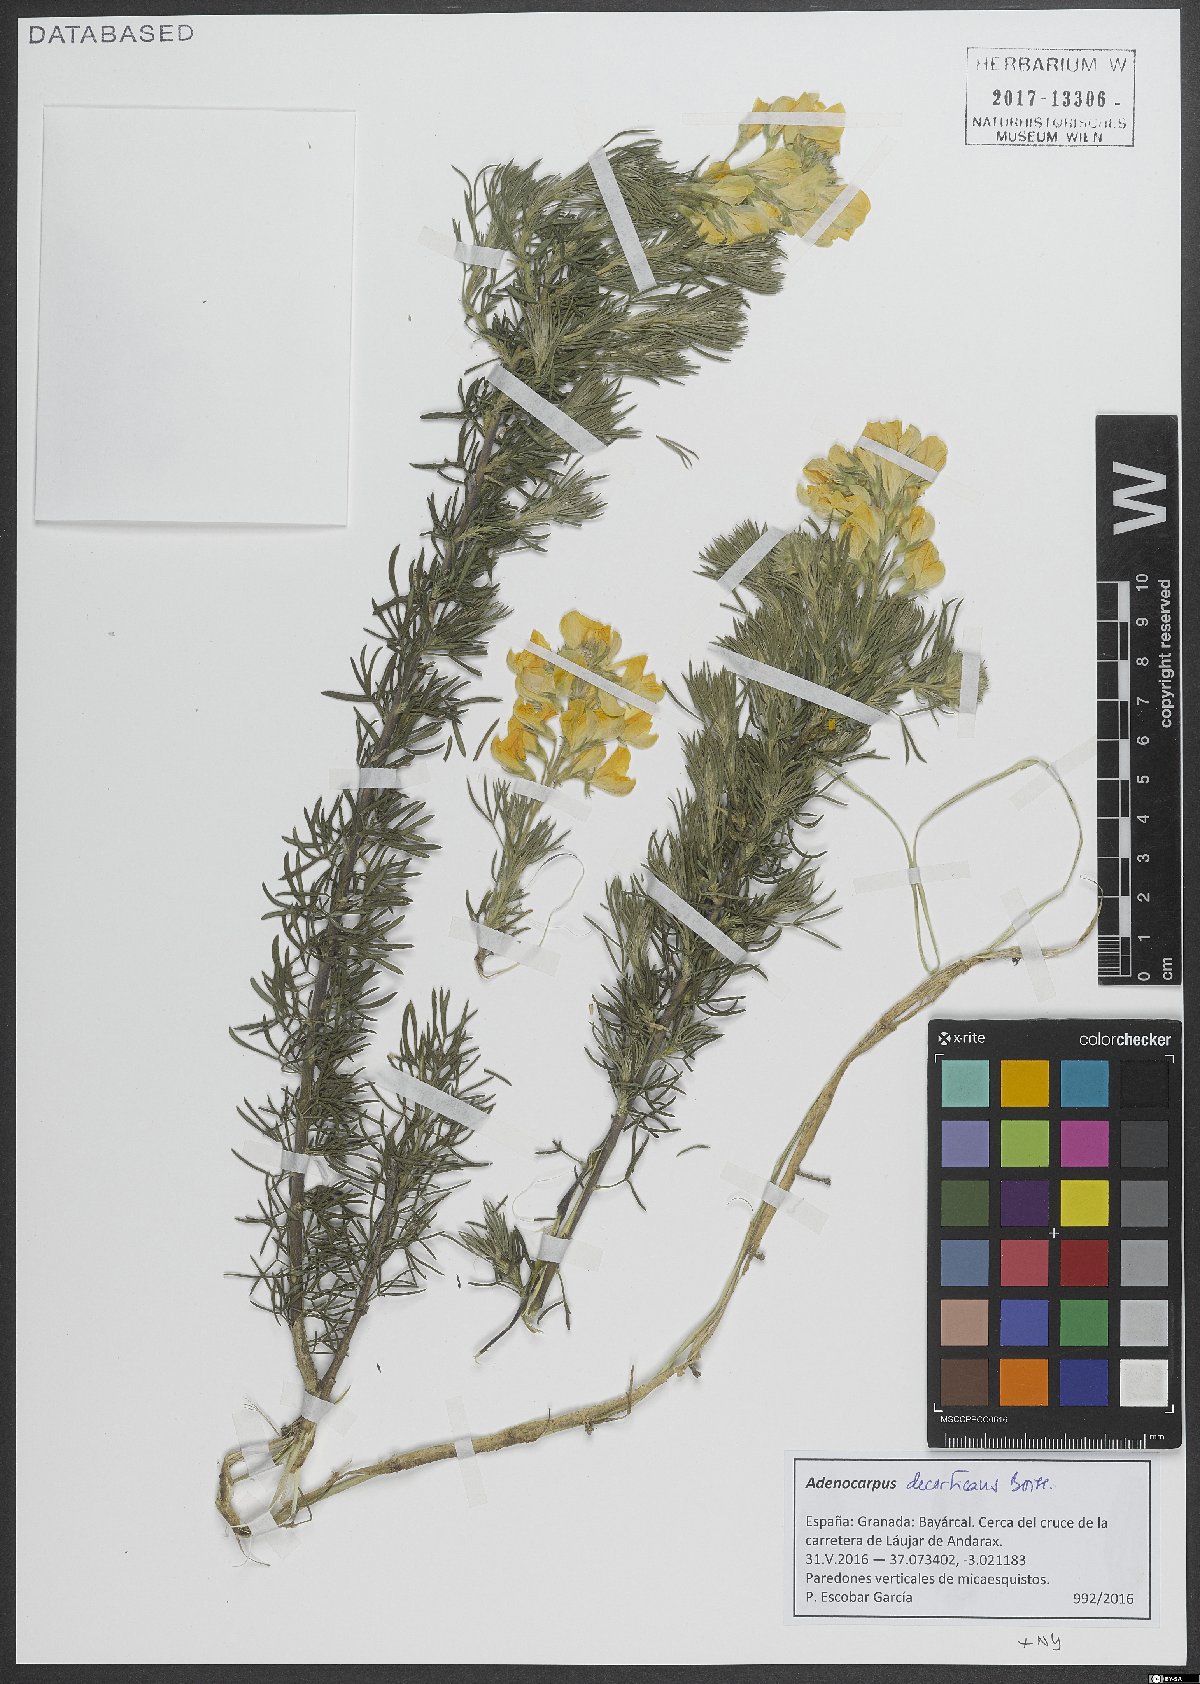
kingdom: Plantae
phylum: Tracheophyta
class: Magnoliopsida
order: Fabales
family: Fabaceae
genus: Adenocarpus
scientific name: Adenocarpus decorticans
